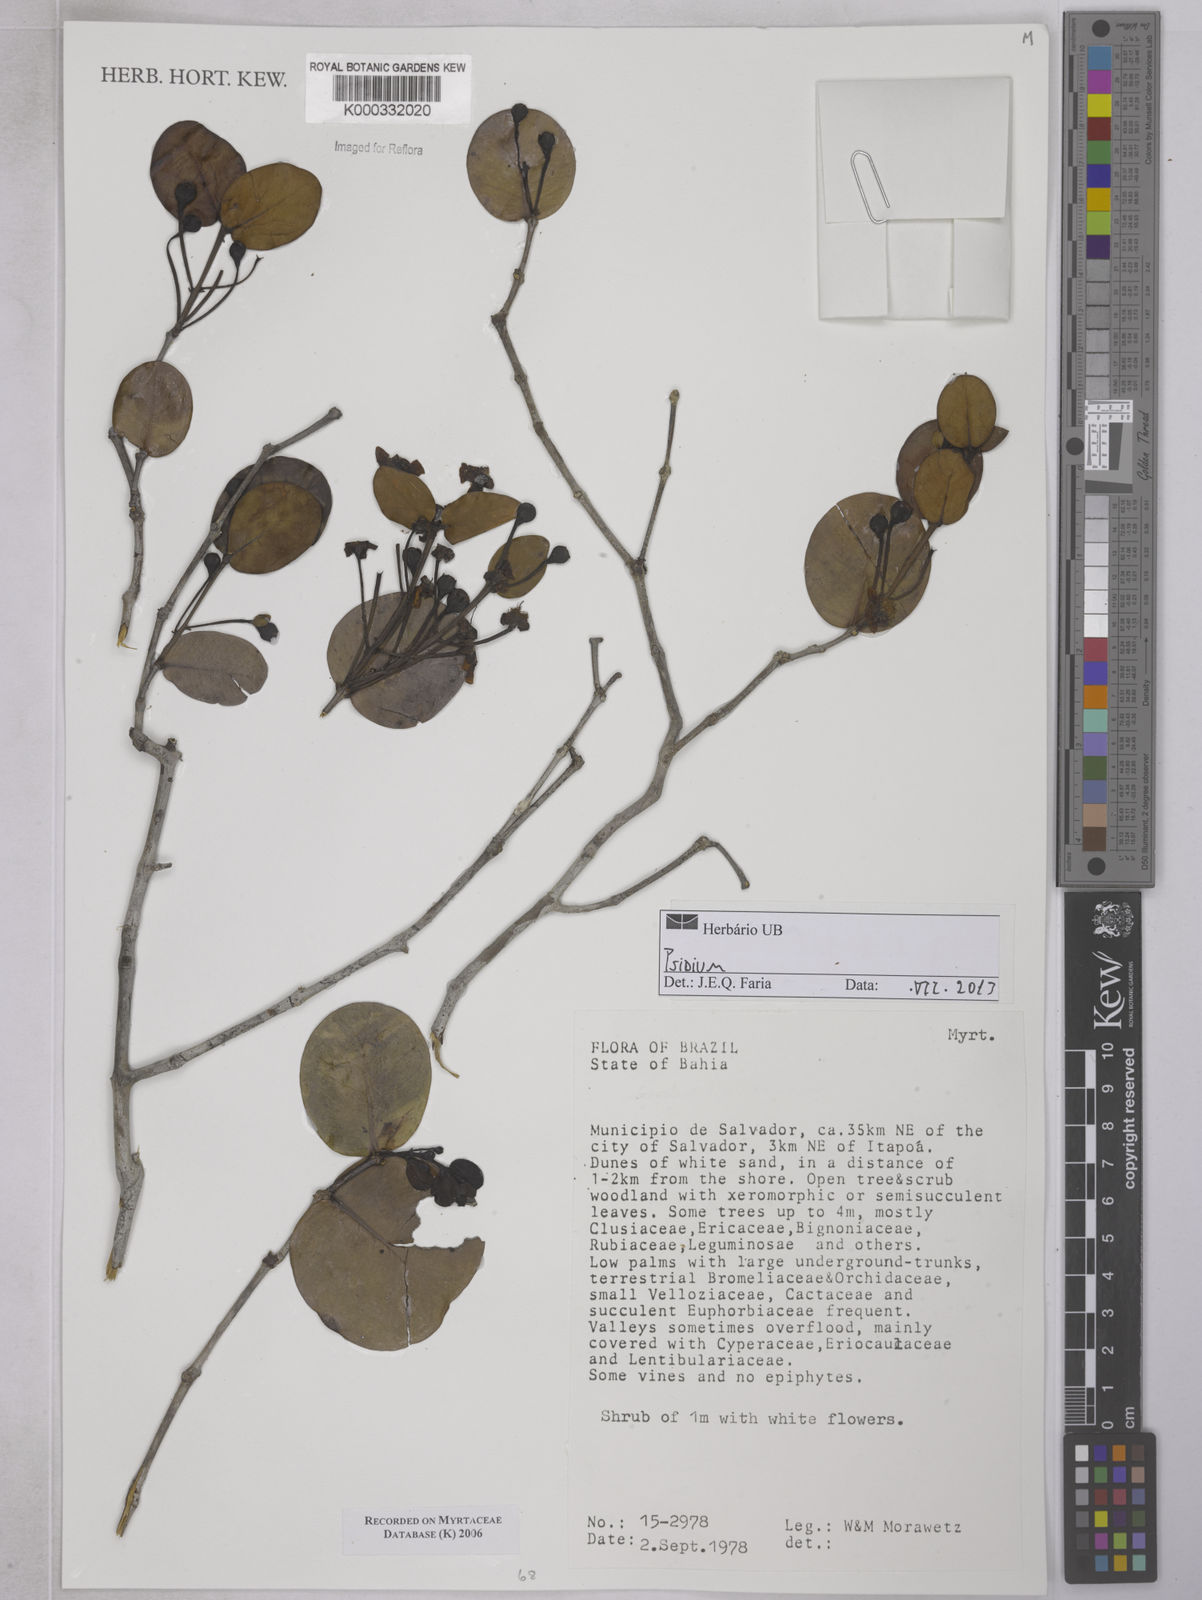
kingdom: Plantae
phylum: Tracheophyta
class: Magnoliopsida
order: Myrtales
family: Myrtaceae
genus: Psidium
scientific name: Psidium
